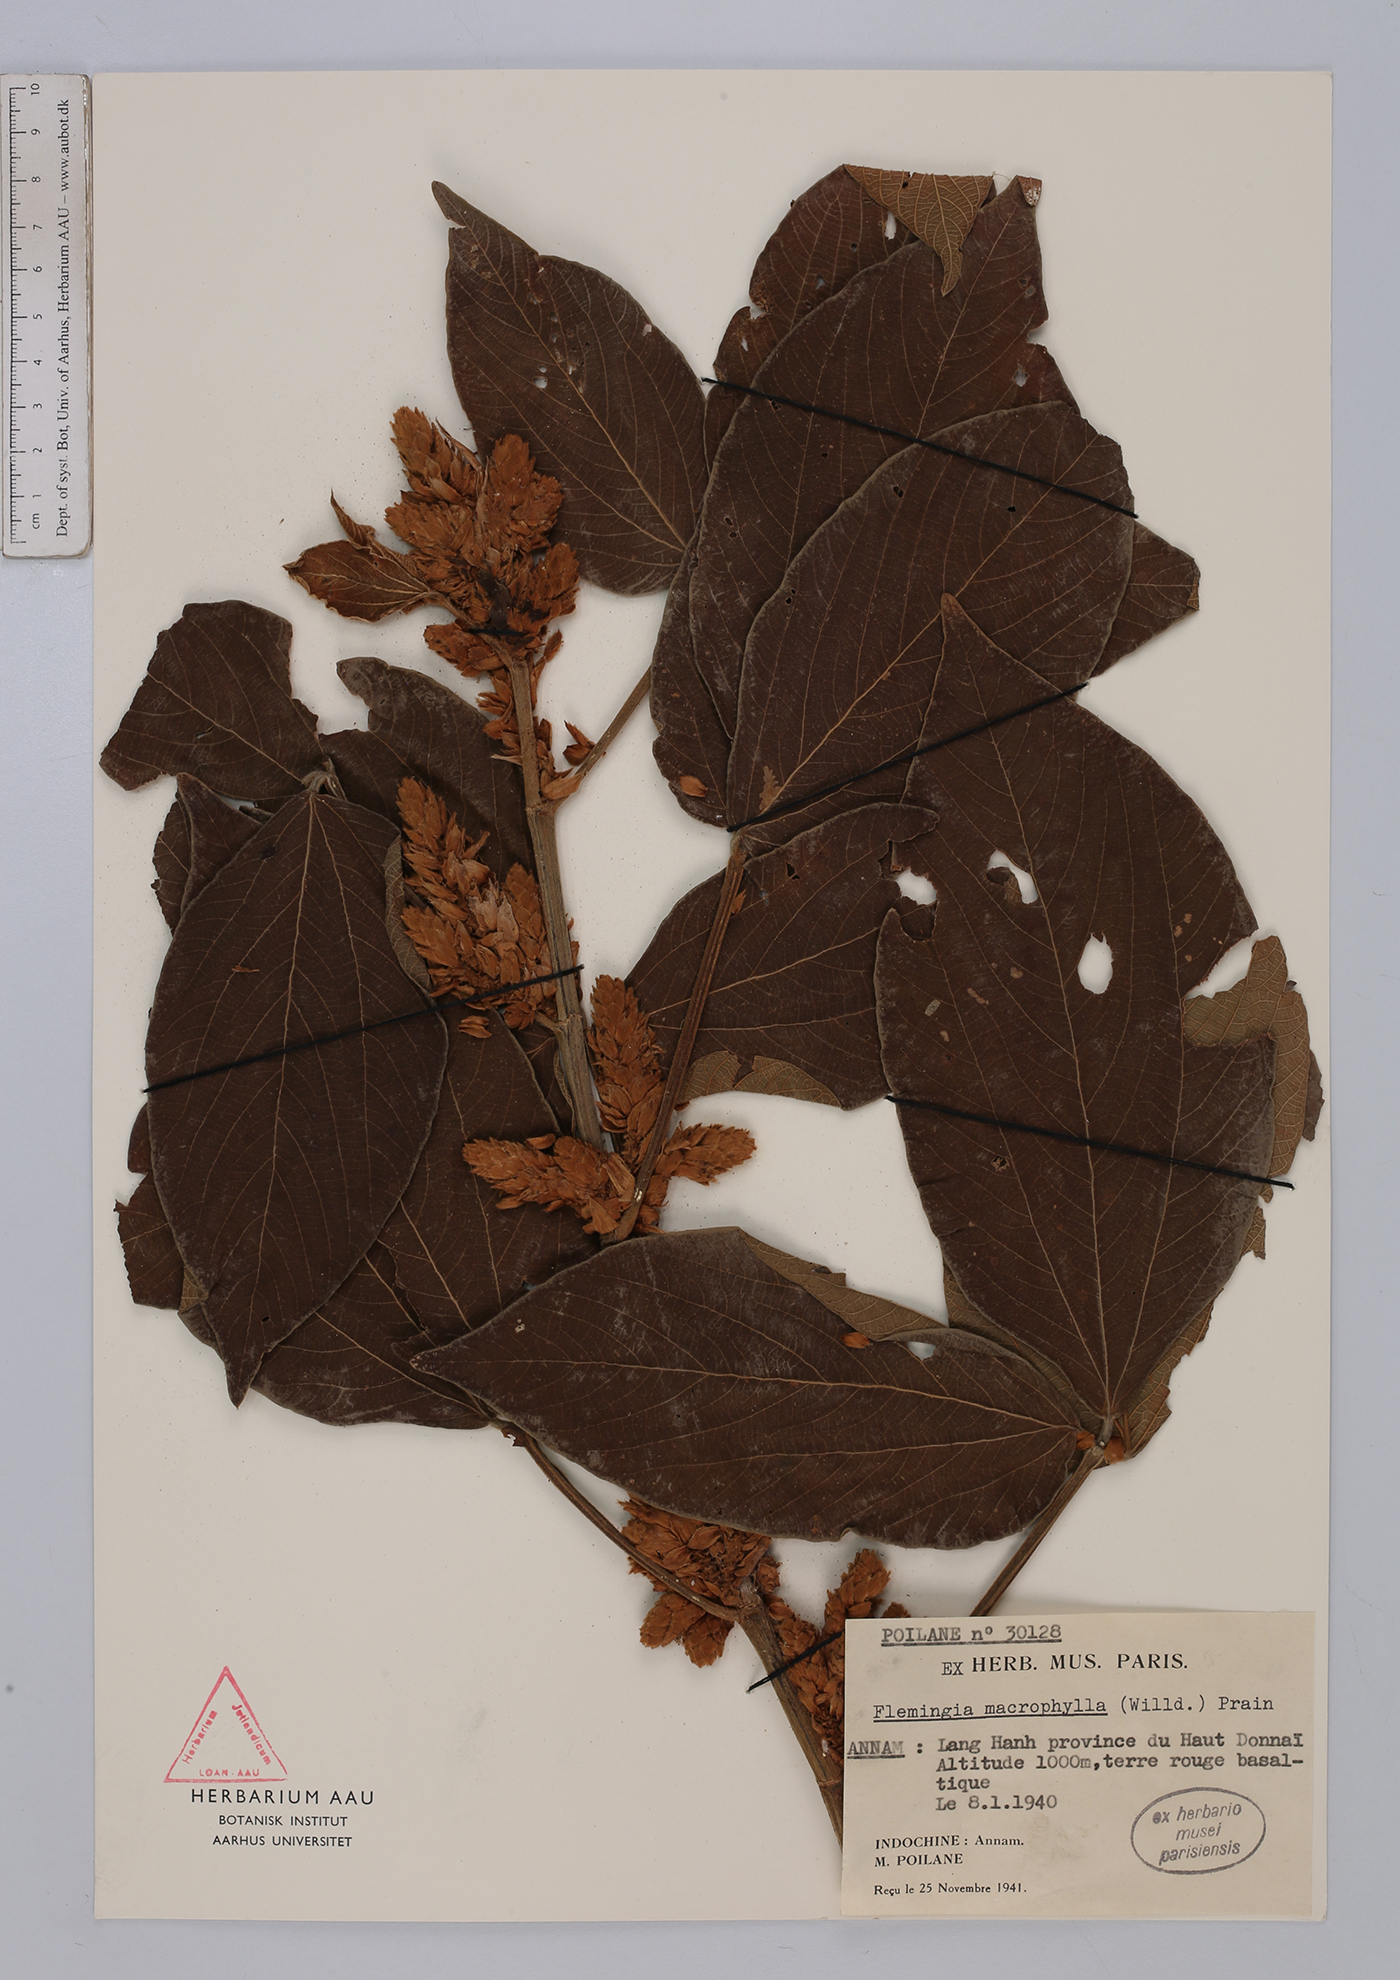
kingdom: Plantae
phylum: Tracheophyta
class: Magnoliopsida
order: Fabales
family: Fabaceae
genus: Flemingia
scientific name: Flemingia macrophylla
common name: Flemingia
